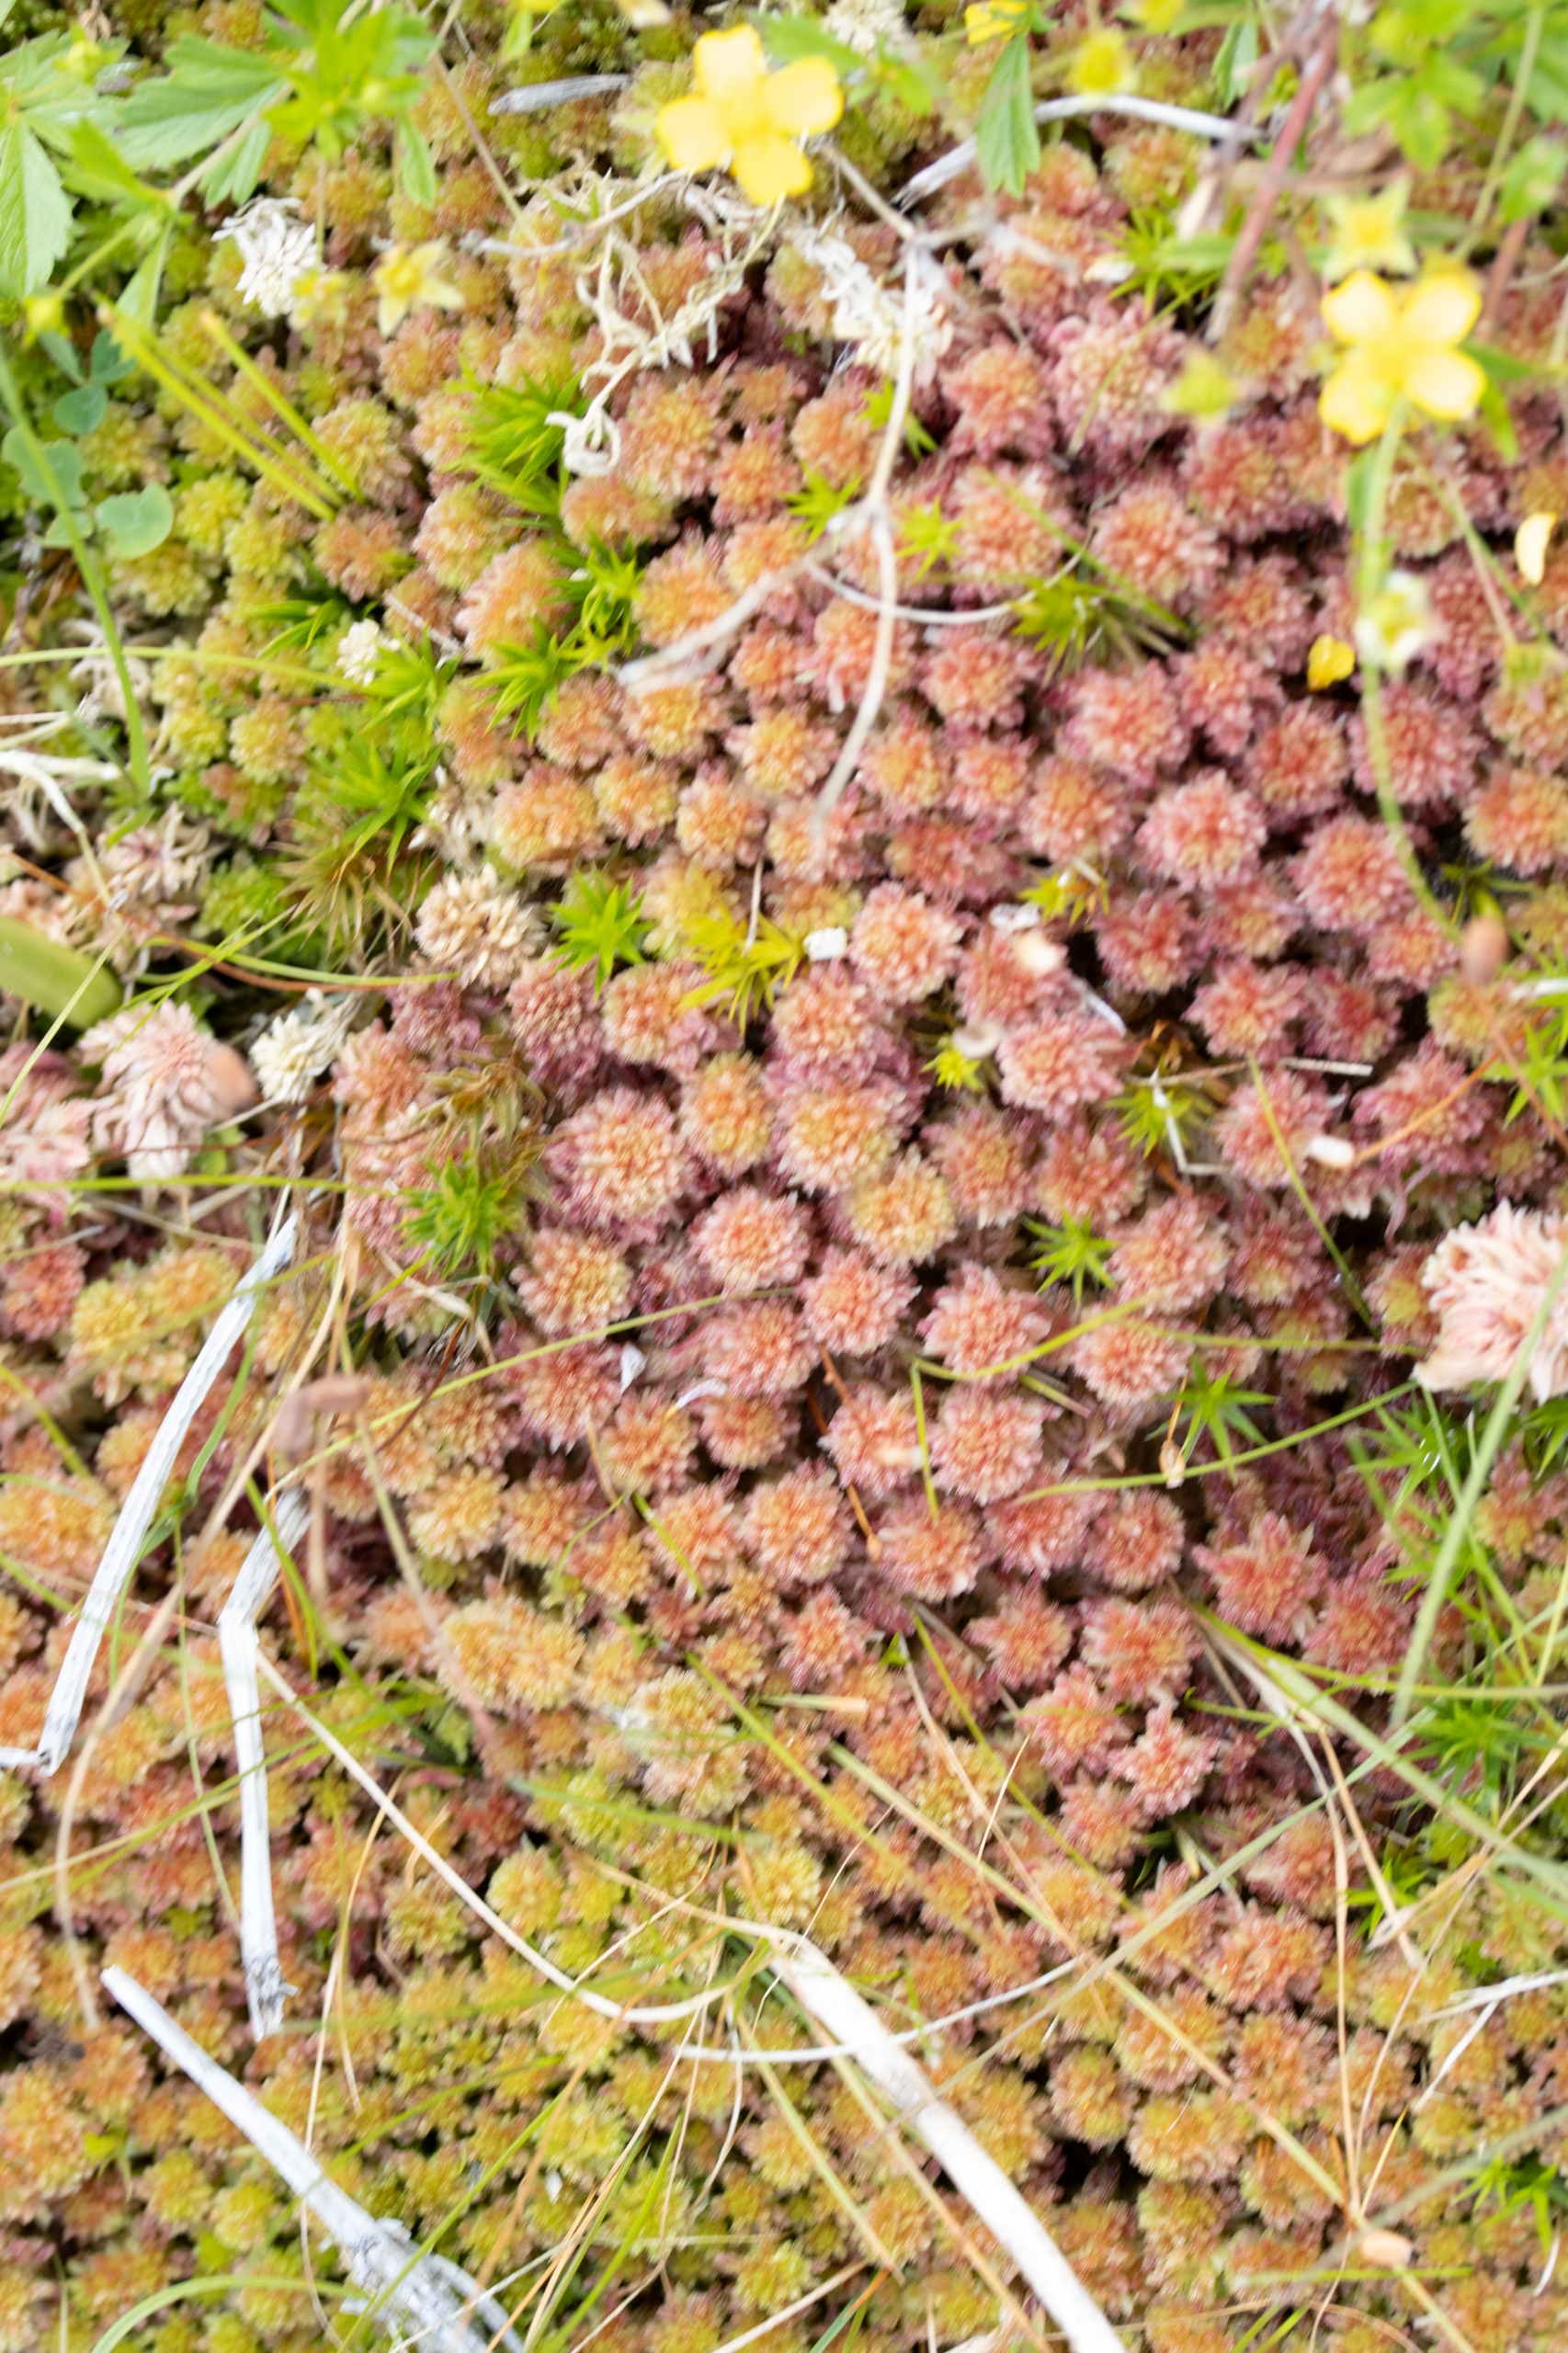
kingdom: Plantae
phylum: Bryophyta
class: Sphagnopsida
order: Sphagnales
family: Sphagnaceae
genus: Sphagnum
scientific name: Sphagnum capillifolium
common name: Plyds-tørvemos
